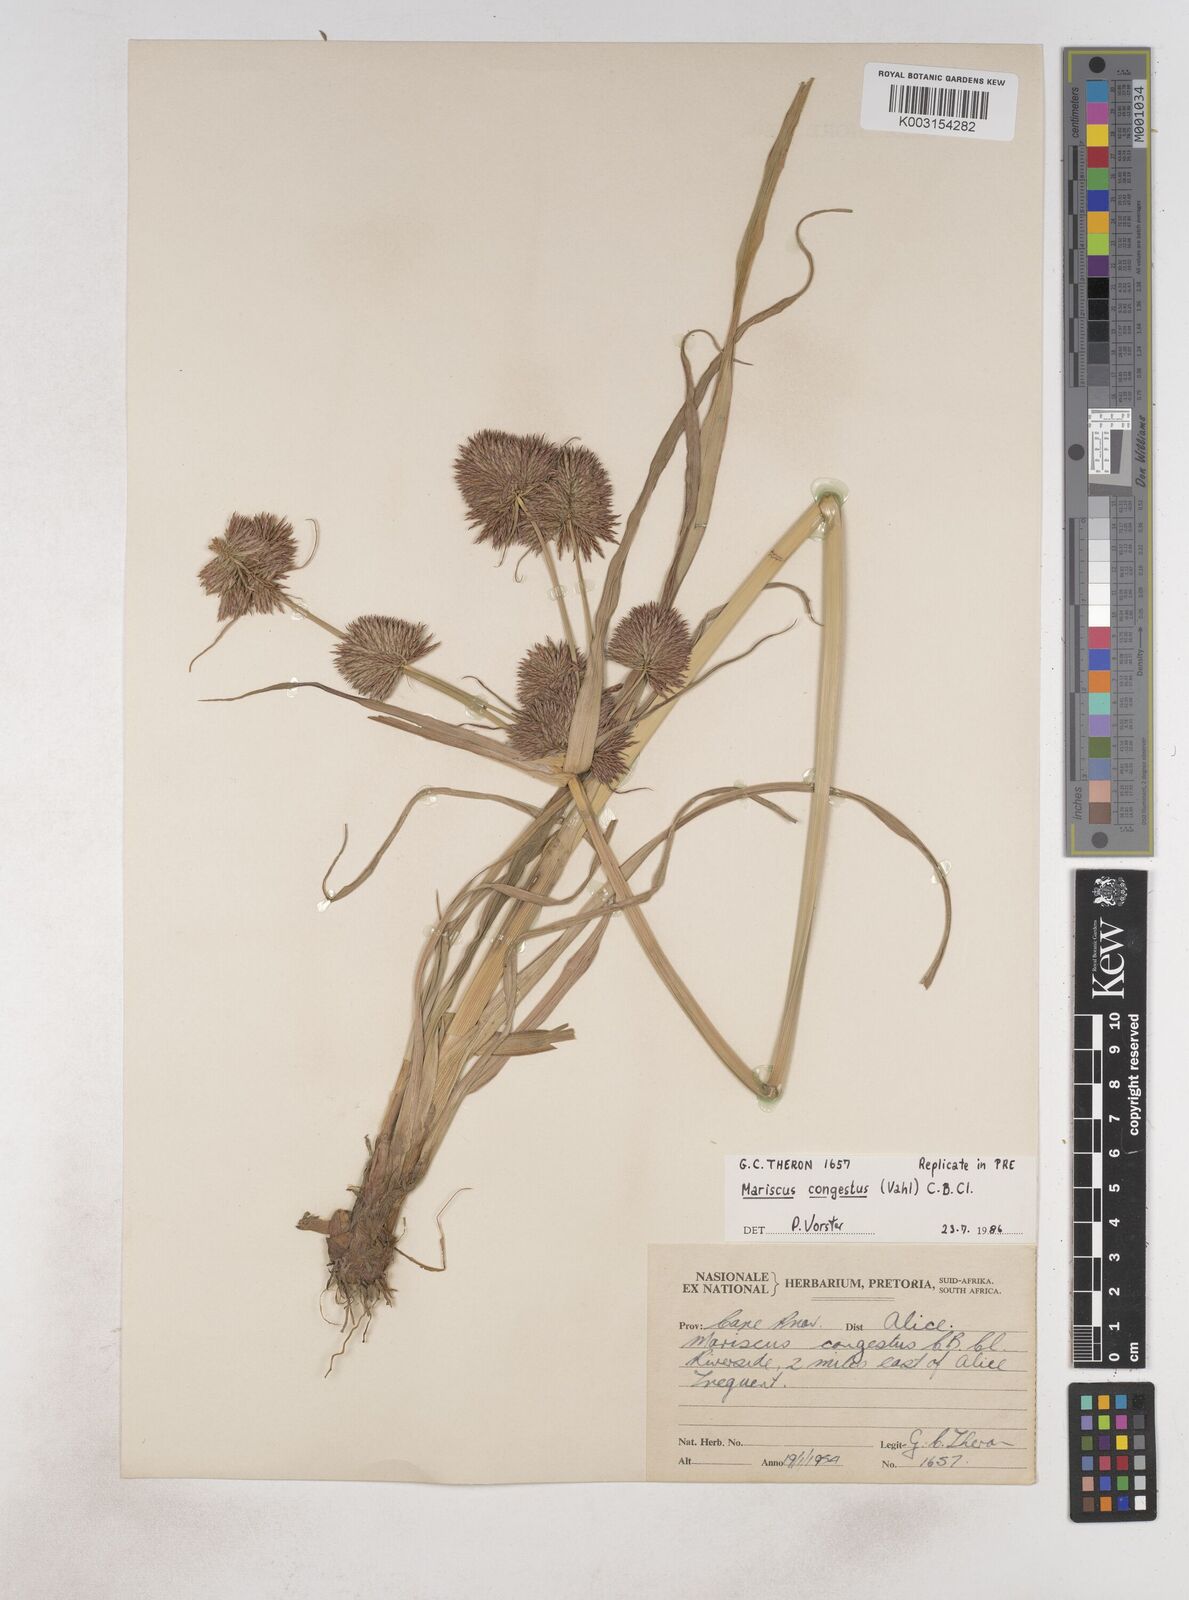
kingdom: Plantae
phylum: Tracheophyta
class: Liliopsida
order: Poales
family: Cyperaceae
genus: Cyperus
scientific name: Cyperus congestus
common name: Dense flat sedge
